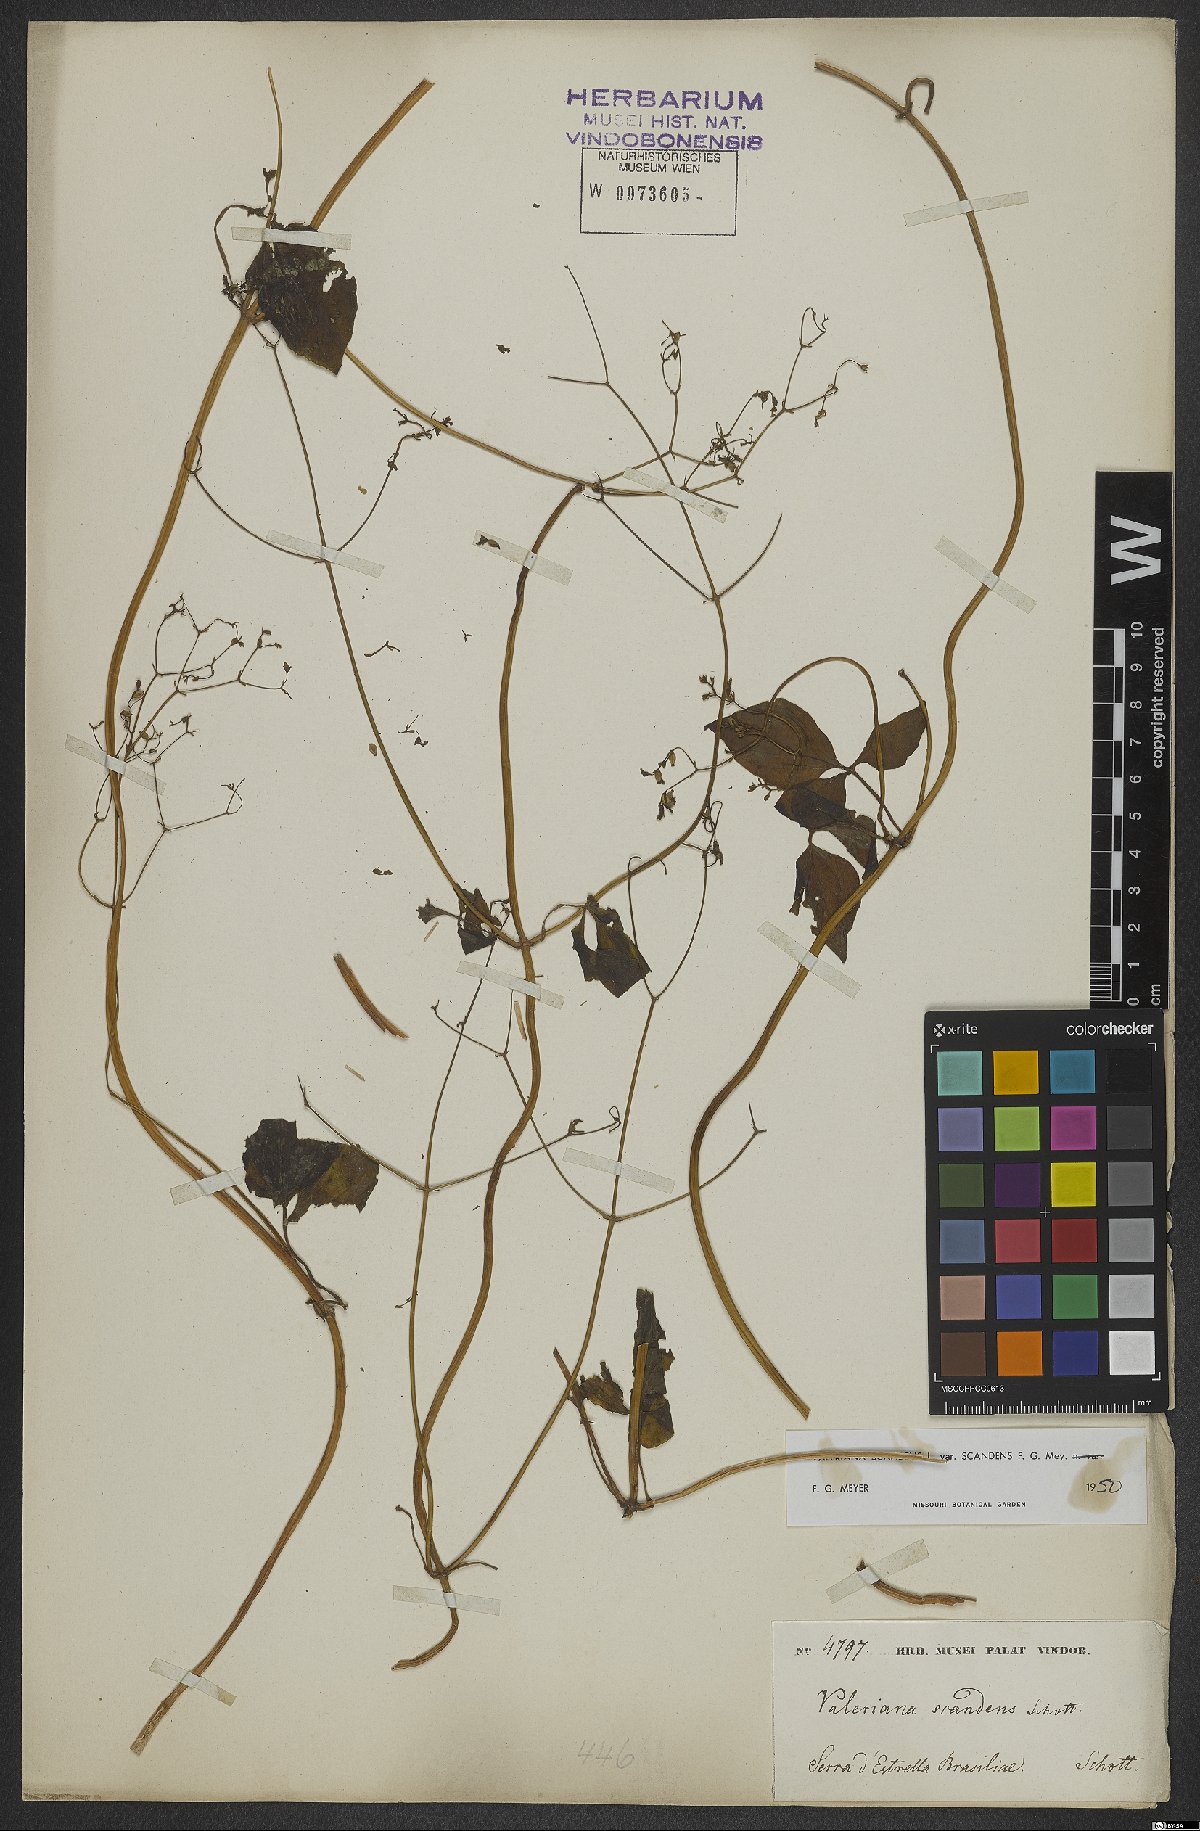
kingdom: Plantae
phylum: Tracheophyta
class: Magnoliopsida
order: Dipsacales
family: Caprifoliaceae
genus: Valeriana
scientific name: Valeriana scandens
